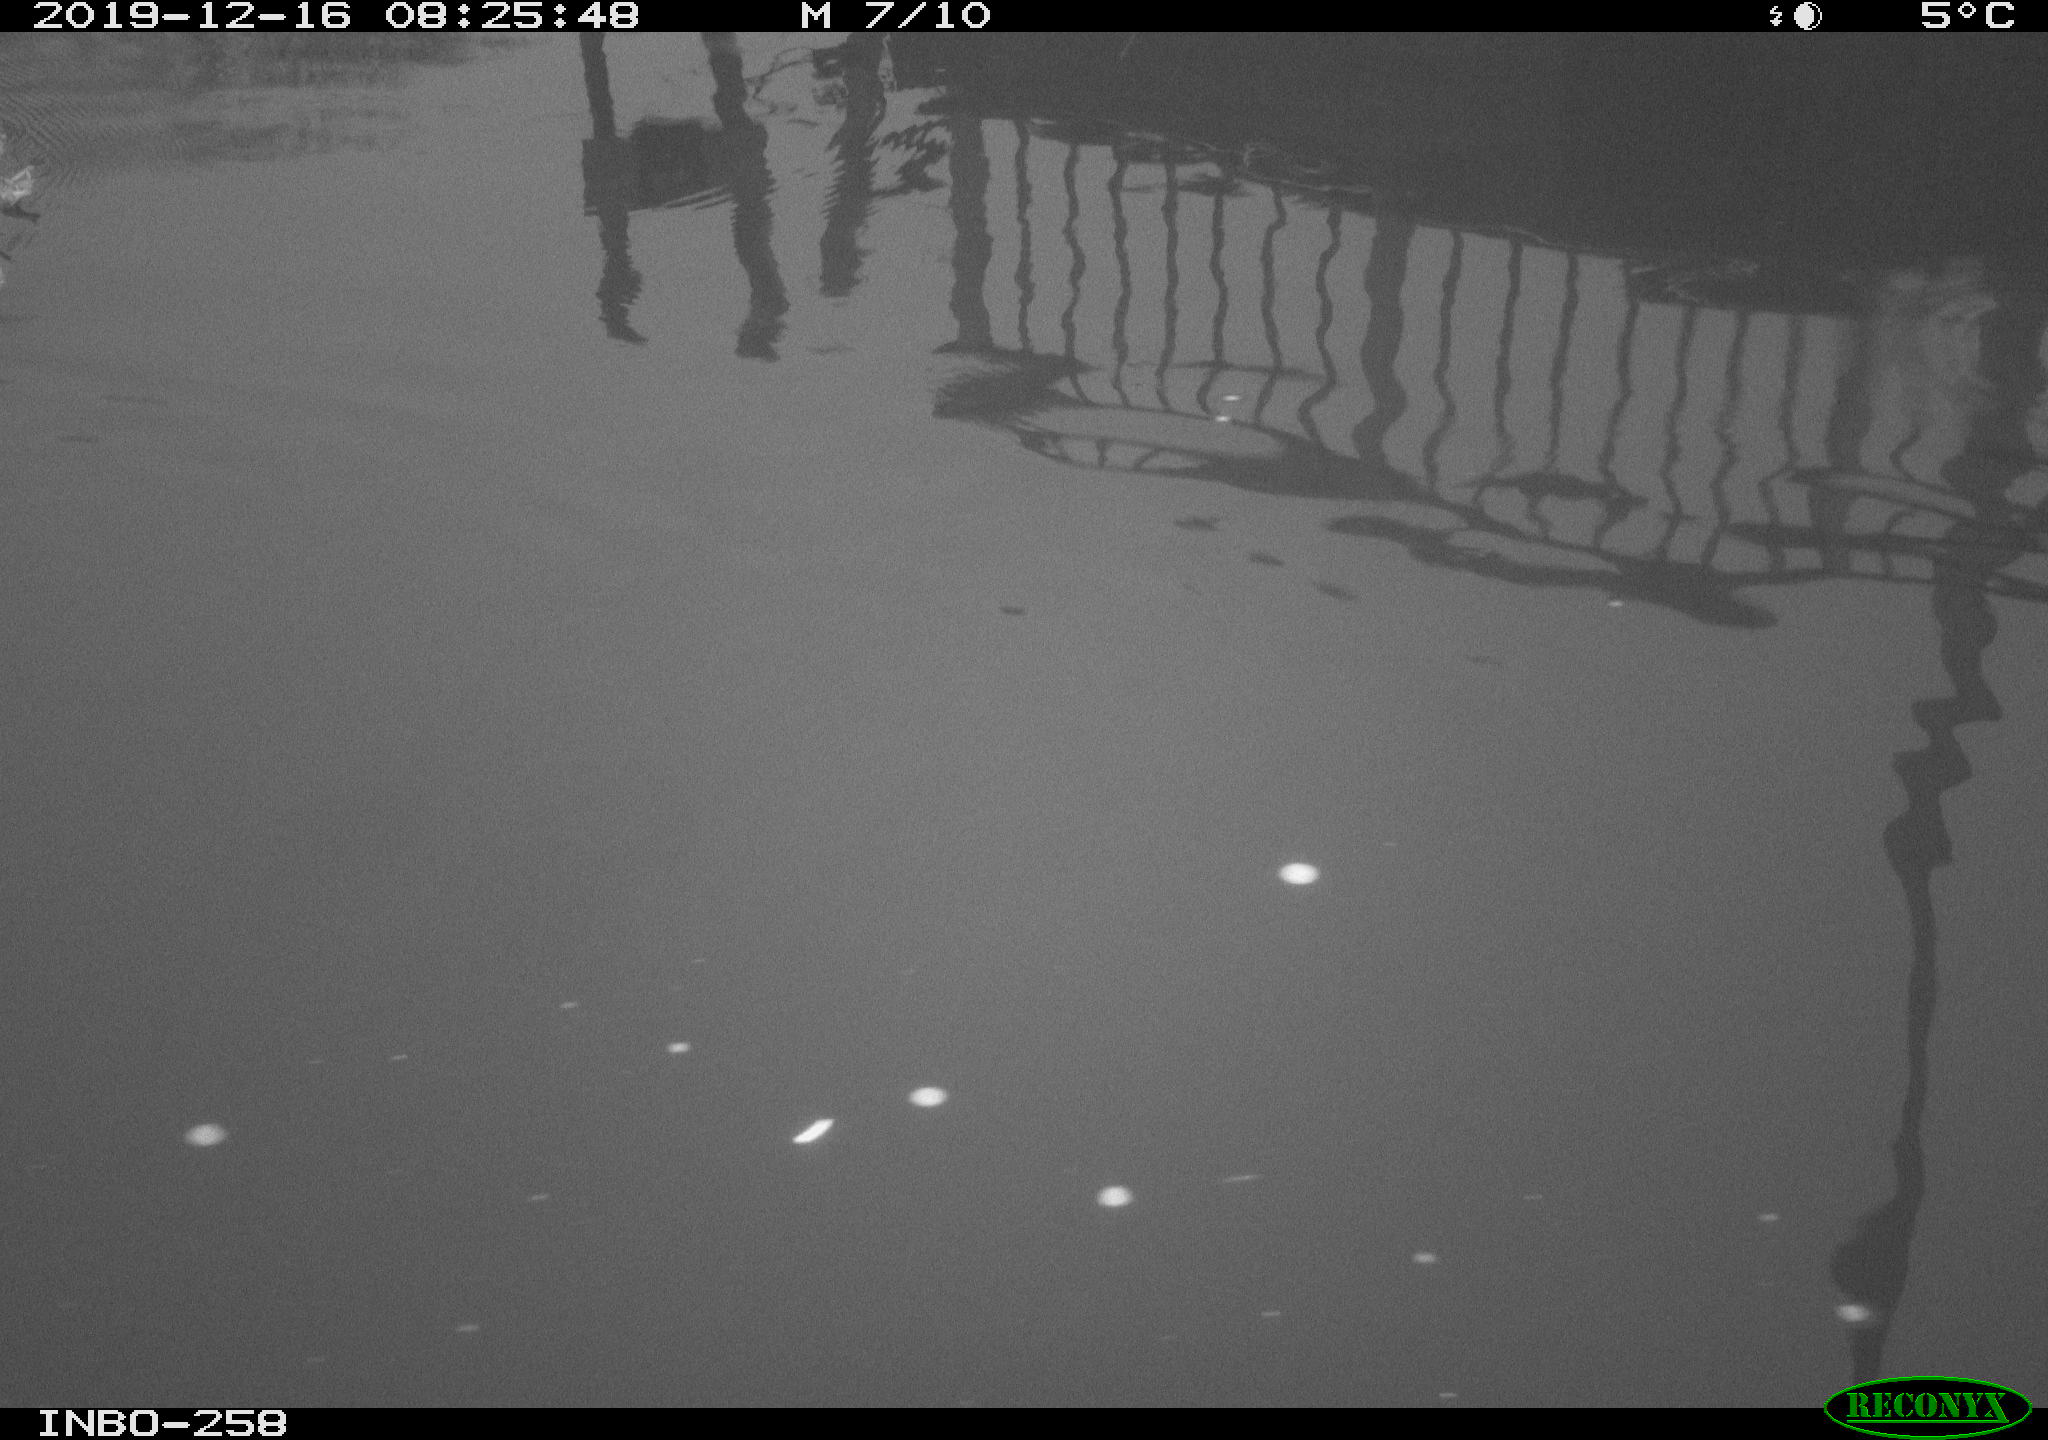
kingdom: Animalia
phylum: Chordata
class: Aves
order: Gruiformes
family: Rallidae
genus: Gallinula
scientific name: Gallinula chloropus
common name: Common moorhen
